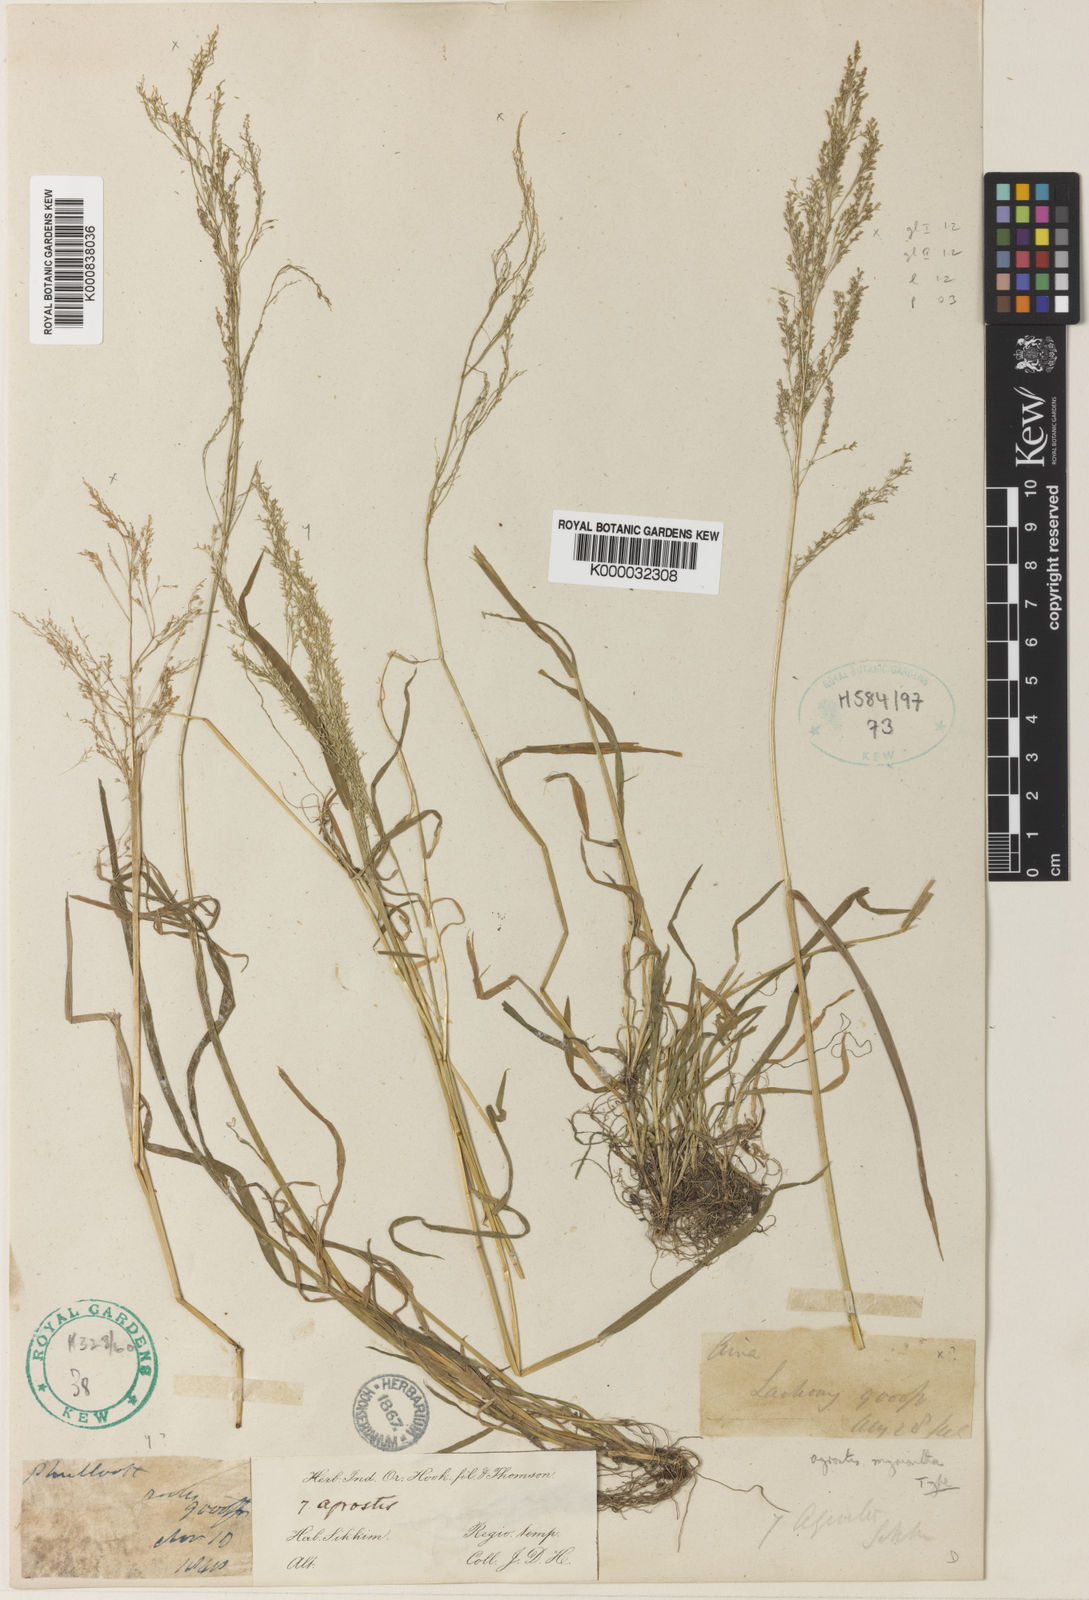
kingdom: Plantae
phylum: Tracheophyta
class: Liliopsida
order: Poales
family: Poaceae
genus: Agrostis
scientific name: Agrostis micrantha
